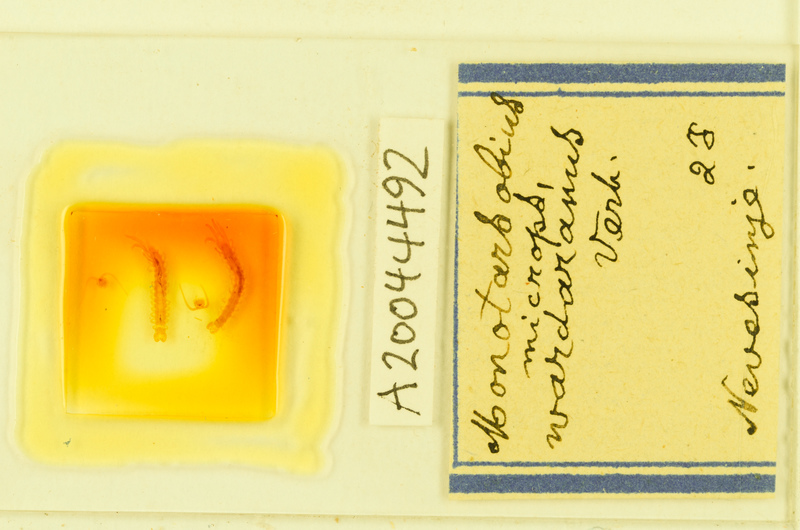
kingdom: Animalia
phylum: Arthropoda
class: Chilopoda
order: Lithobiomorpha
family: Lithobiidae
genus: Monotarsobius
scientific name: Monotarsobius microps
